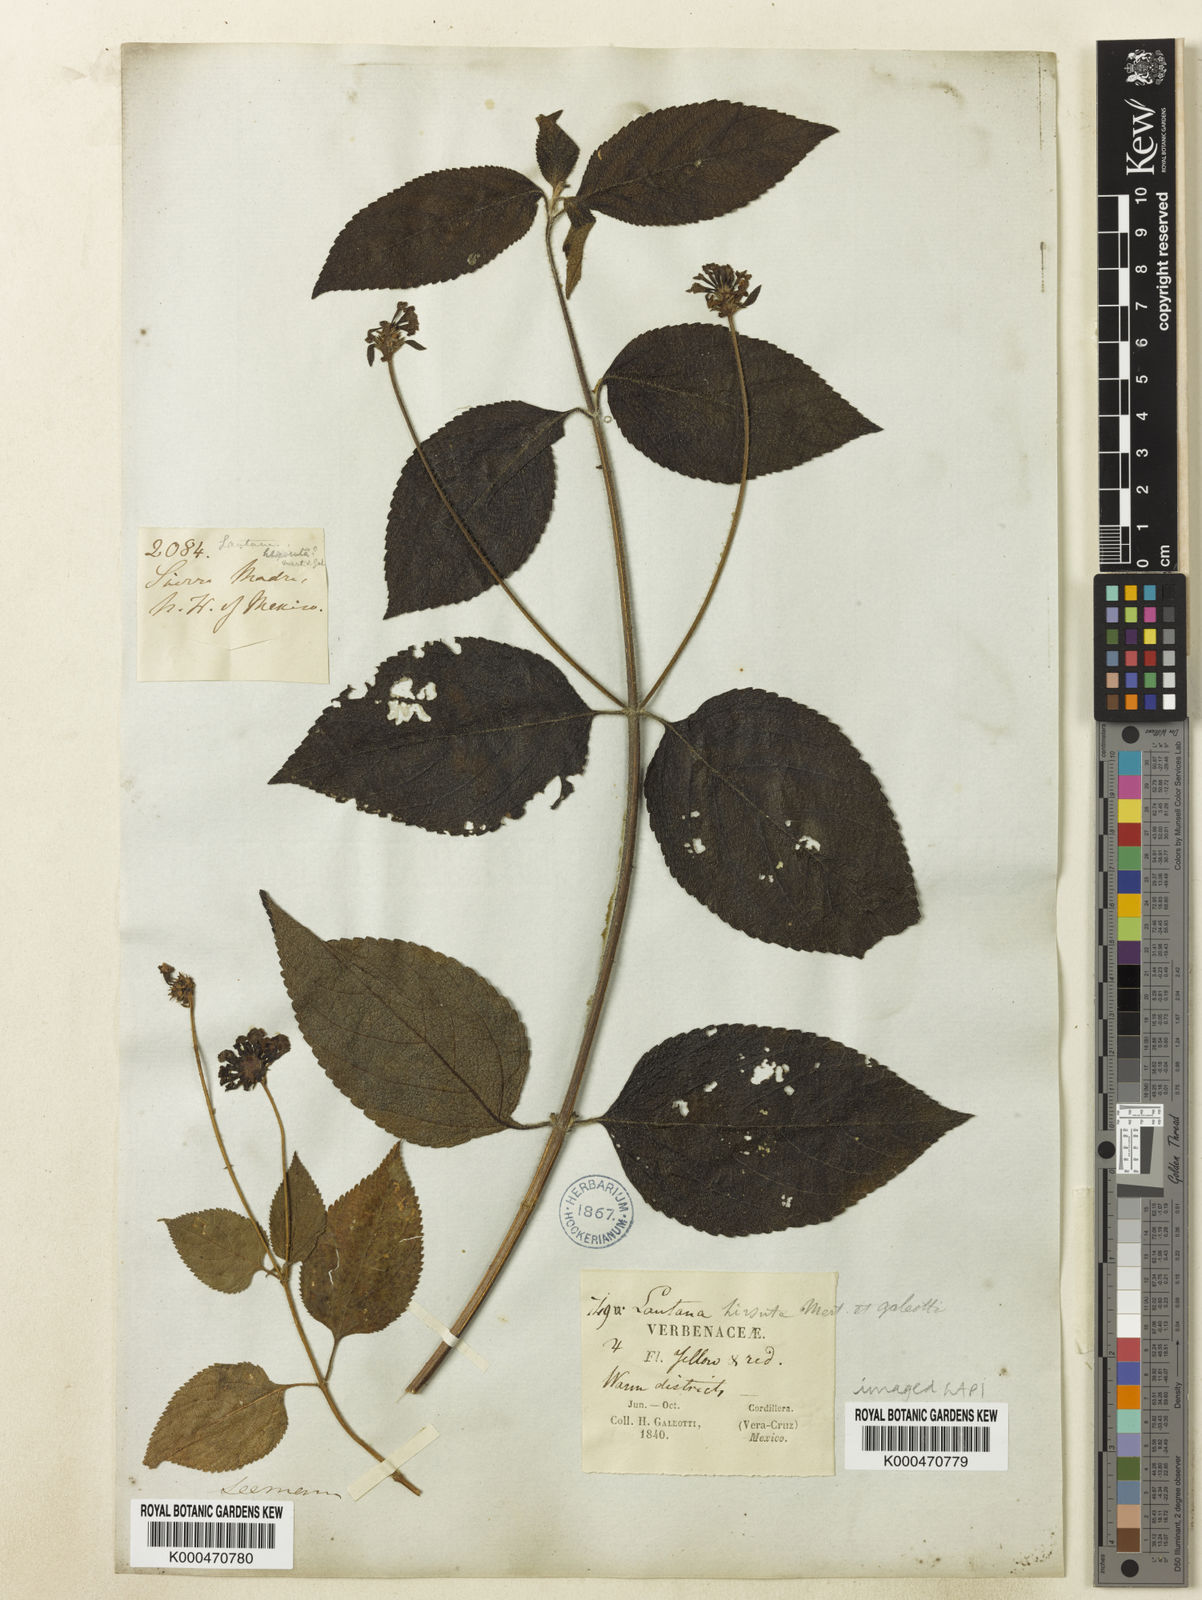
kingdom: Plantae
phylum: Tracheophyta
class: Magnoliopsida
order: Lamiales
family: Verbenaceae
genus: Lantana
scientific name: Lantana horrida
